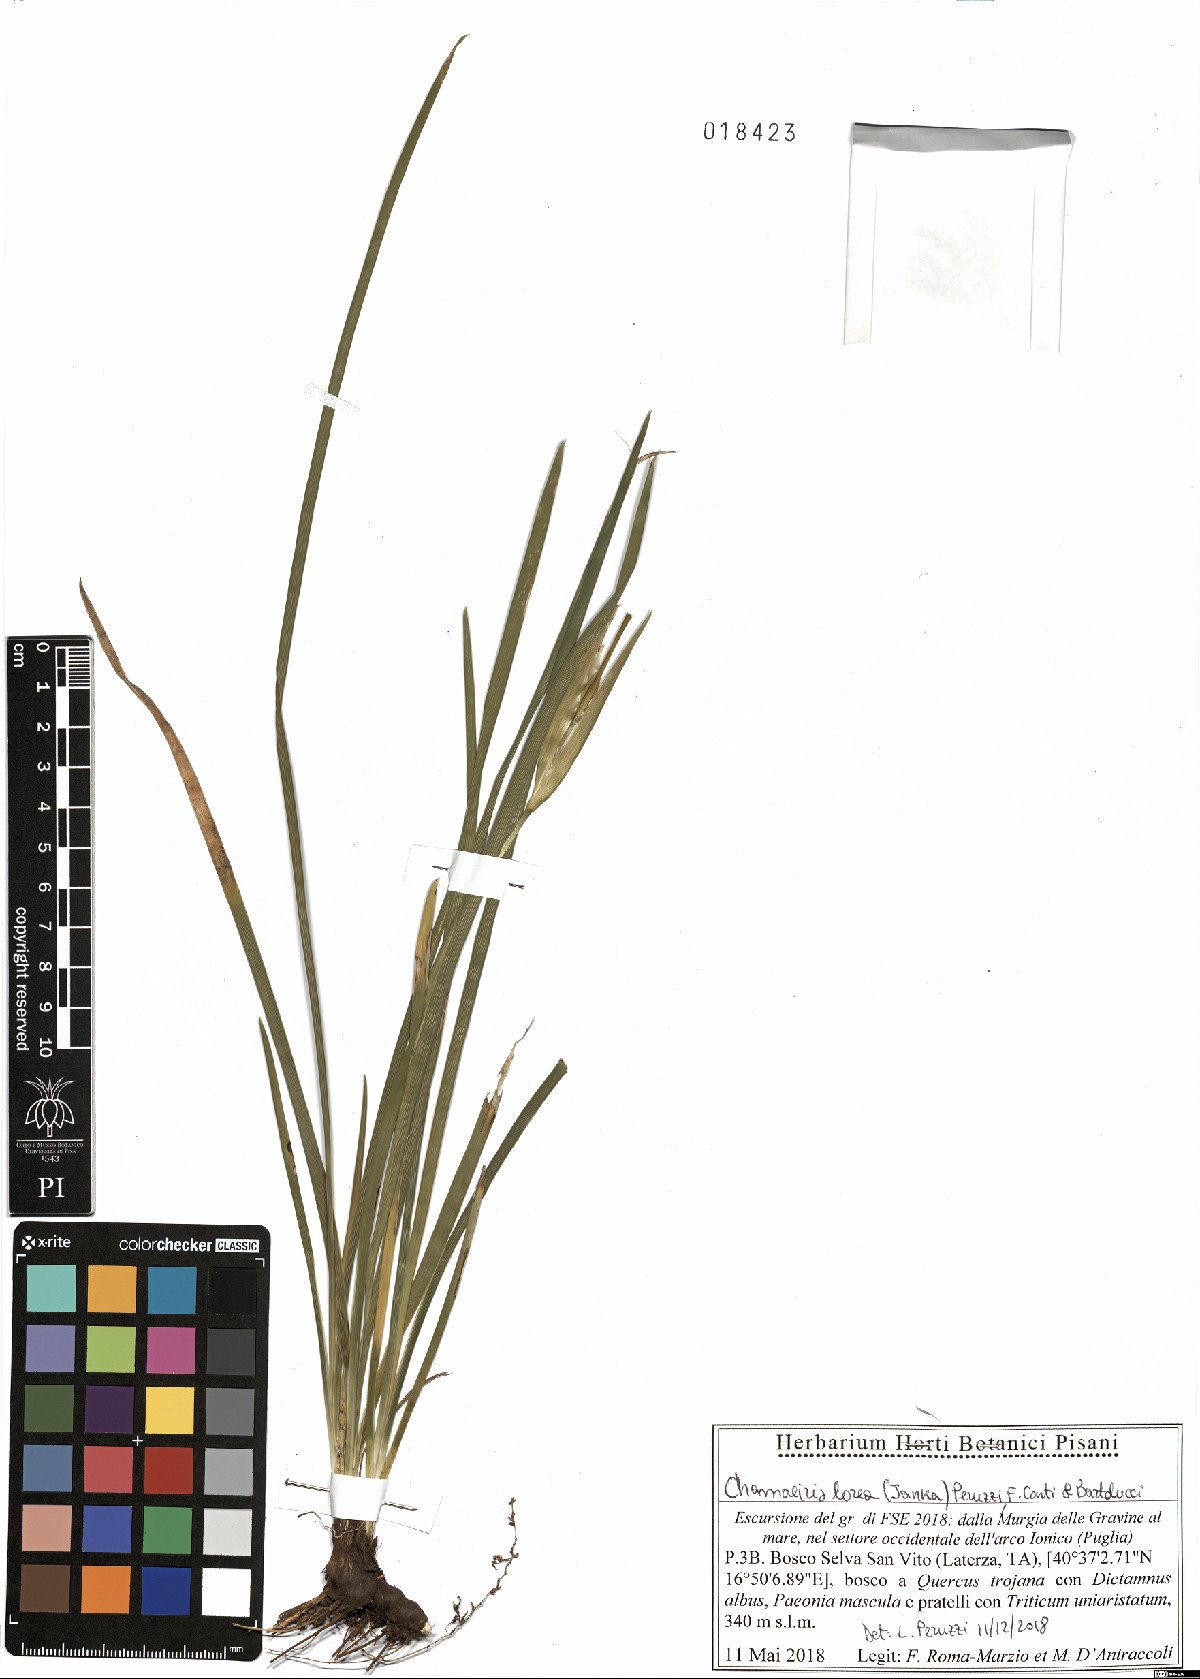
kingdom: Plantae
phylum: Tracheophyta
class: Liliopsida
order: Asparagales
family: Iridaceae
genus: Iris
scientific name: Iris sintenisii
